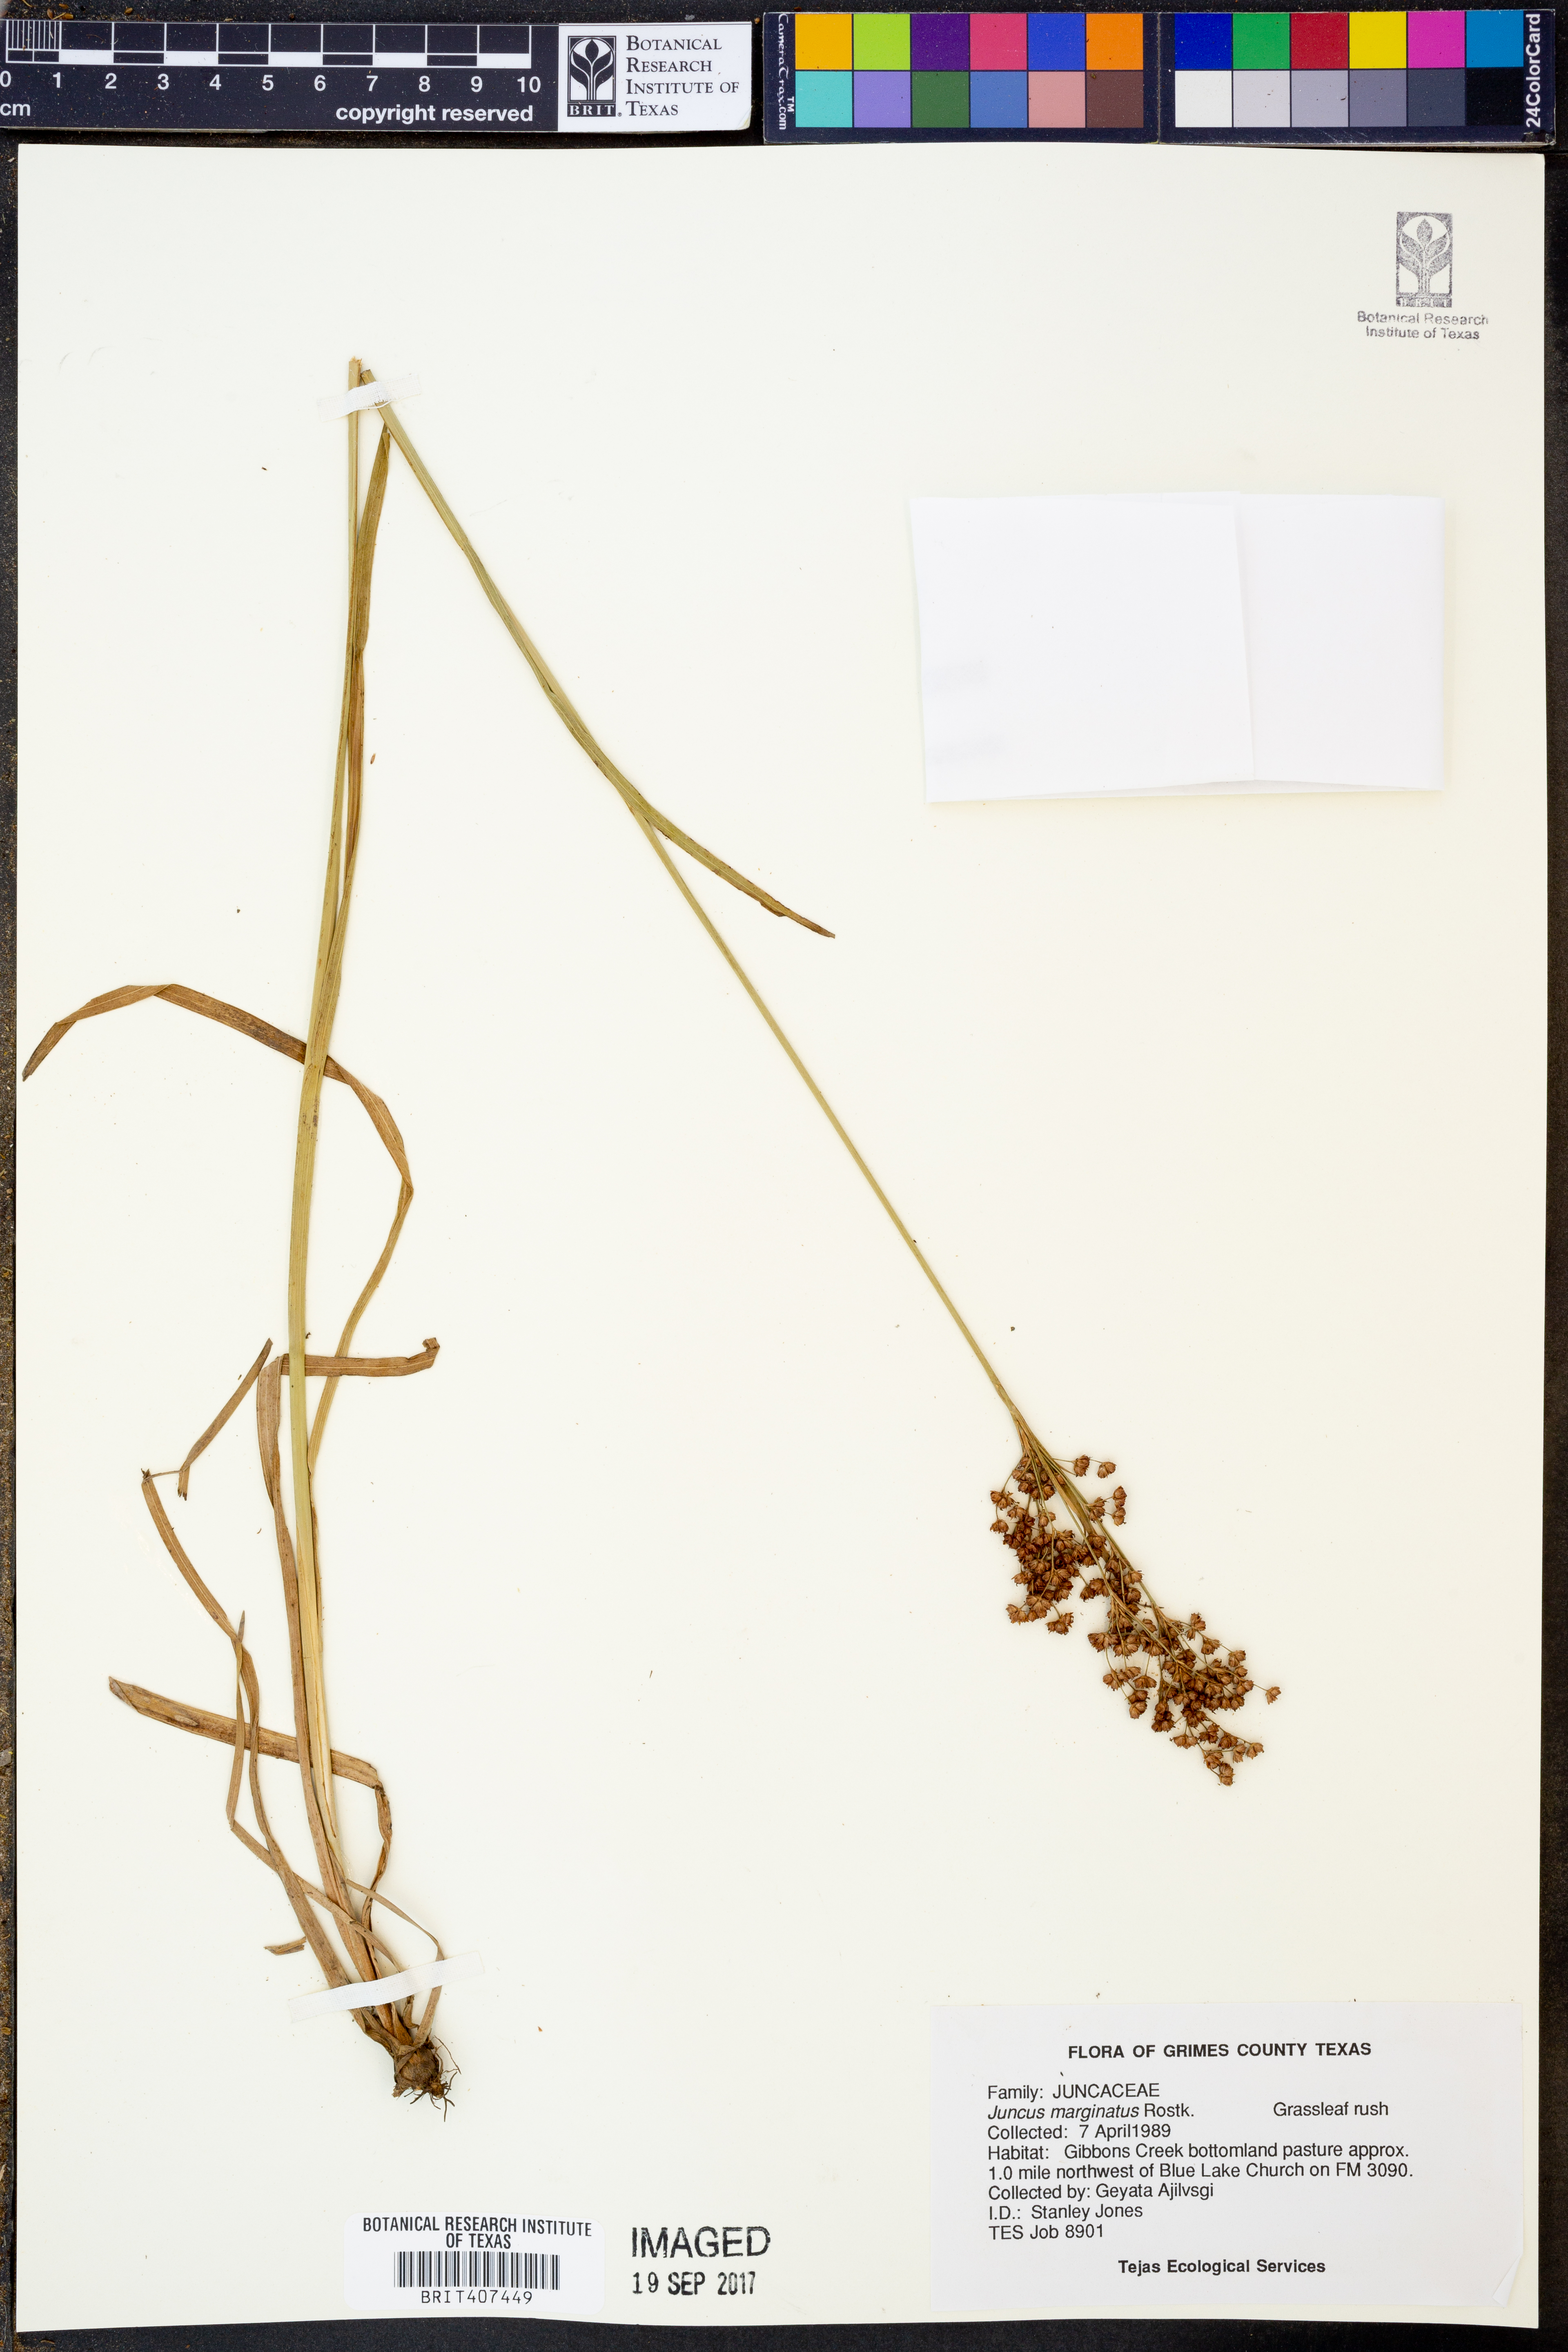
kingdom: Plantae
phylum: Tracheophyta
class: Liliopsida
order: Poales
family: Juncaceae
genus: Juncus
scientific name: Juncus marginatus
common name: Grass-leaf rush
